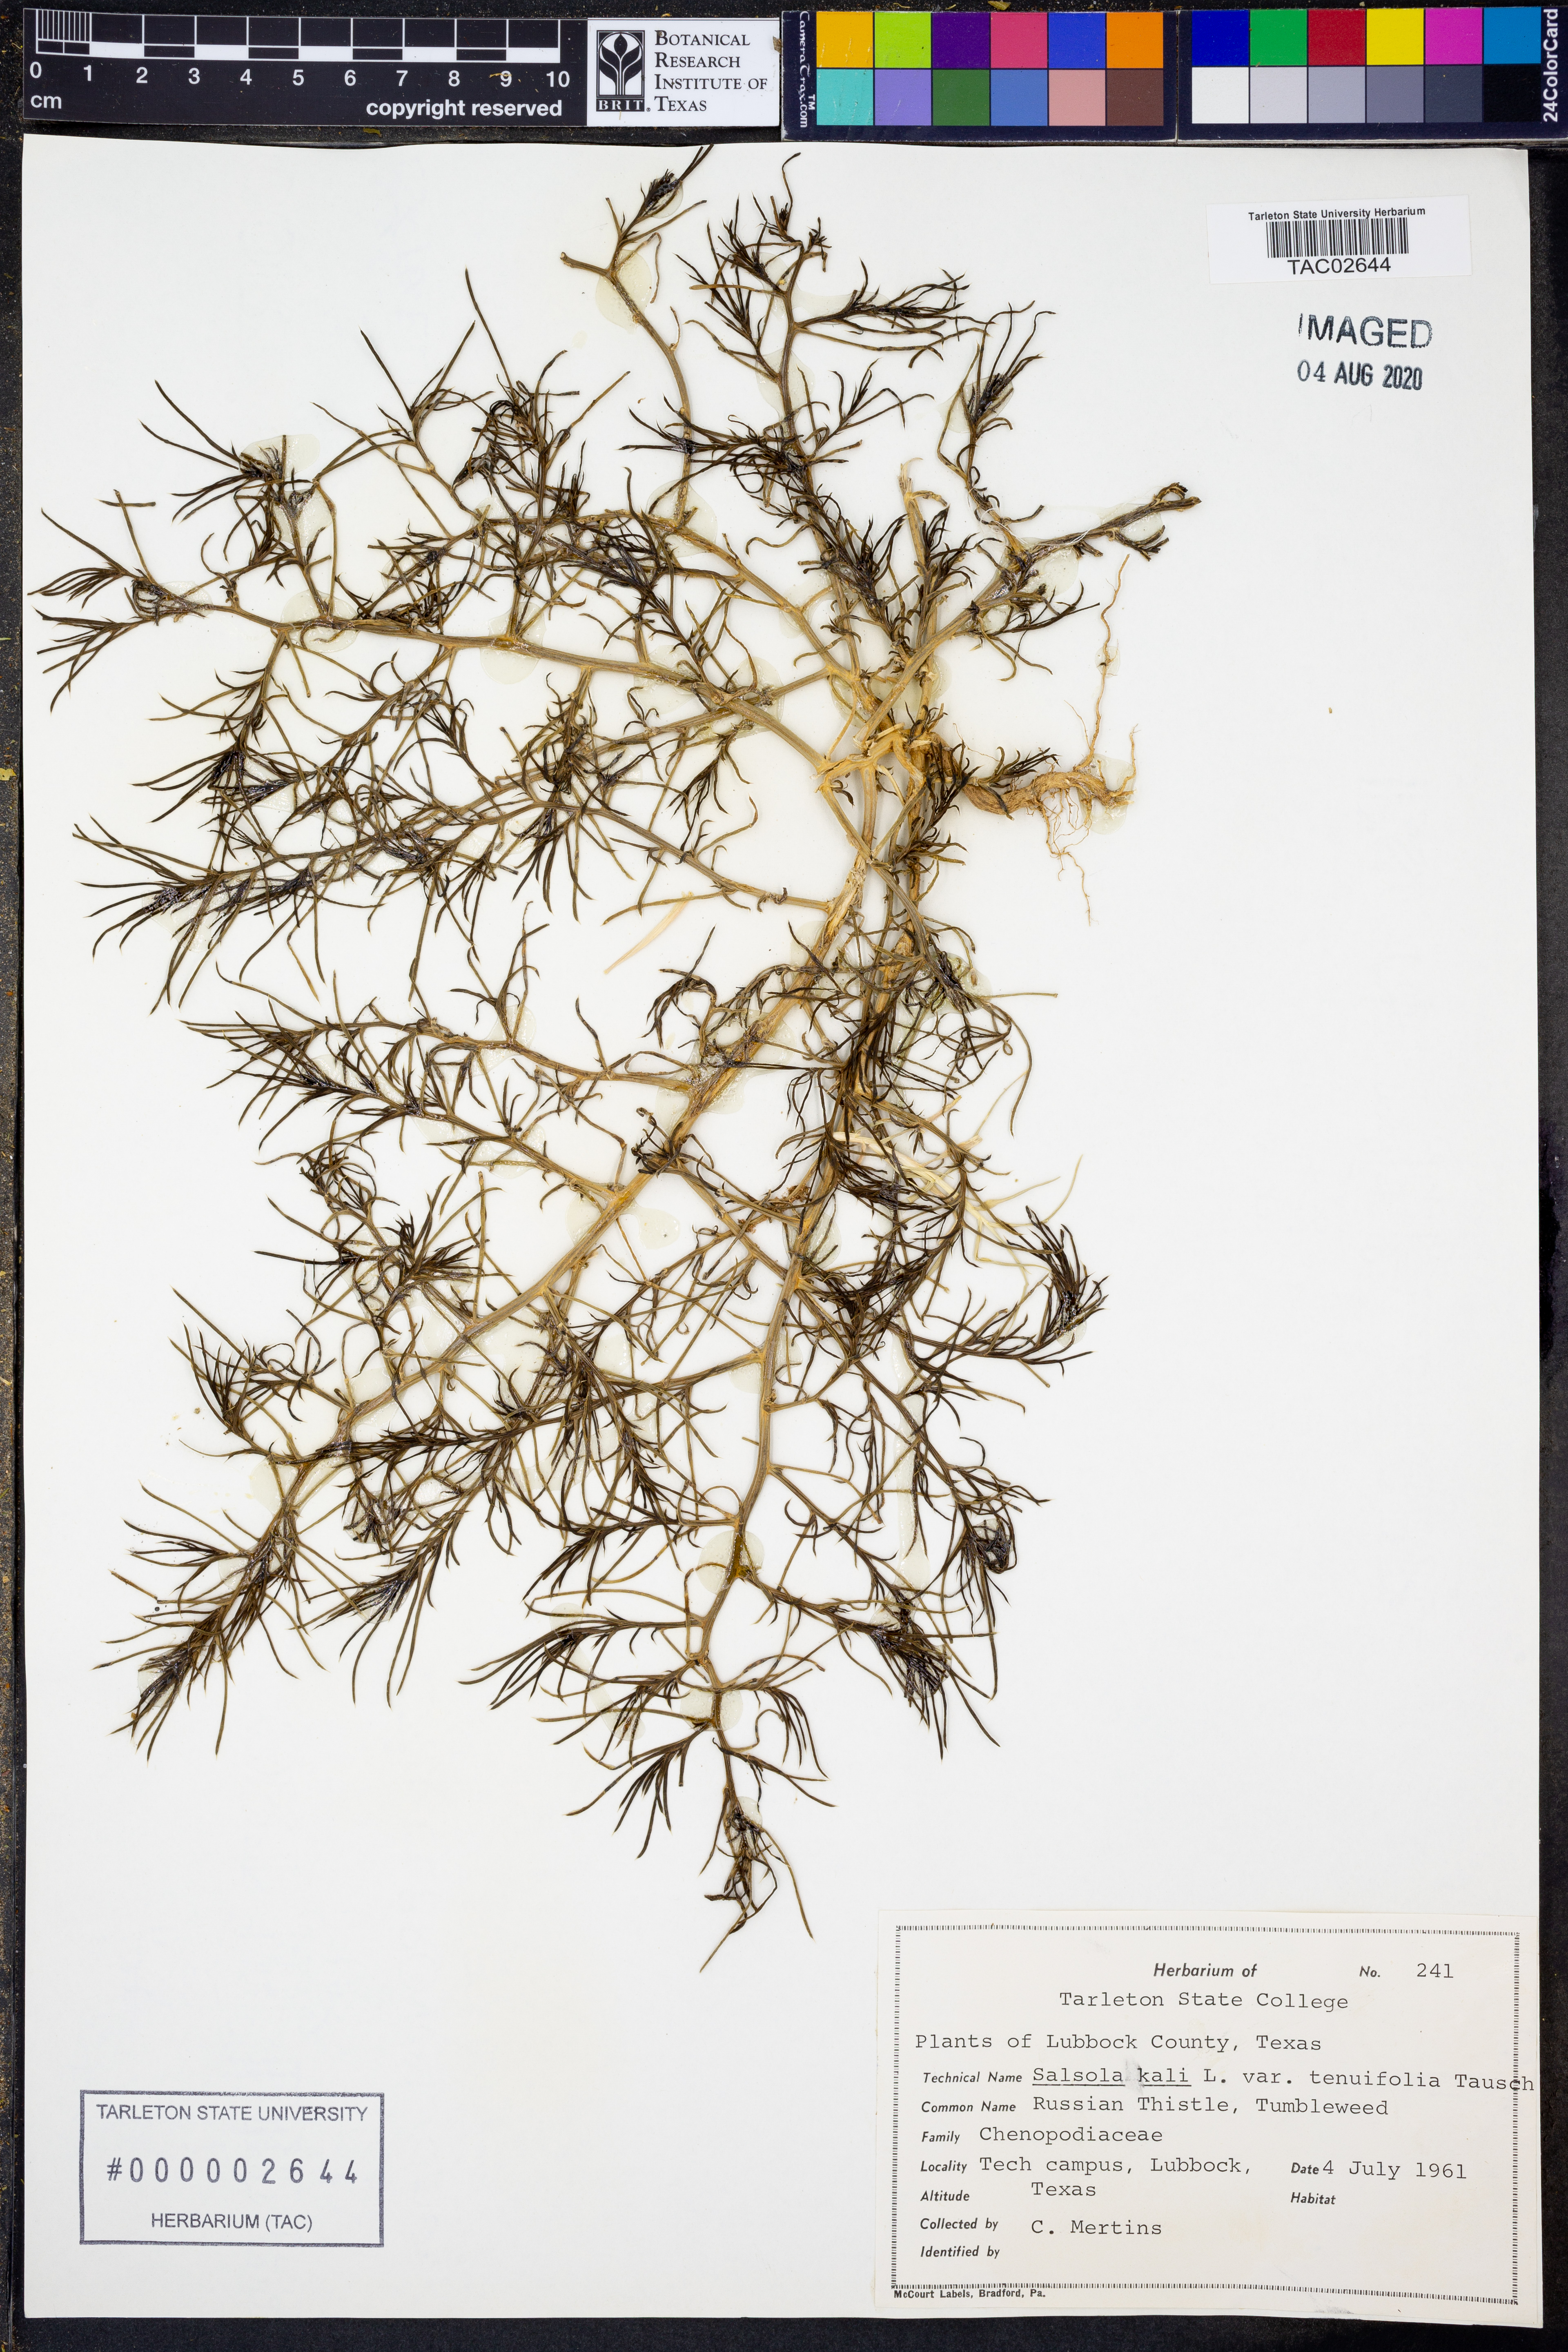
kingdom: Plantae
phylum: Tracheophyta
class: Magnoliopsida
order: Caryophyllales
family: Amaranthaceae
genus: Salsola
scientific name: Salsola tragus
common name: Prickly russian thistle
